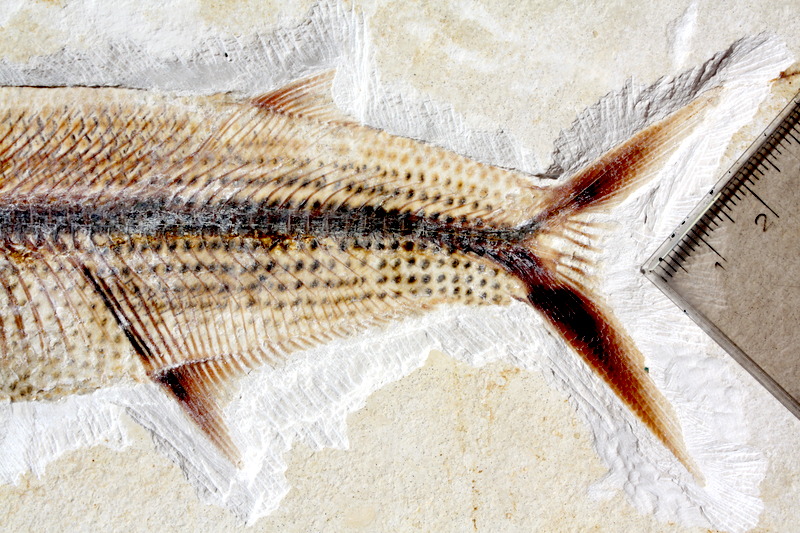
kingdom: Animalia
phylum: Chordata
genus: Thrissops
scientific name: Thrissops formosus
